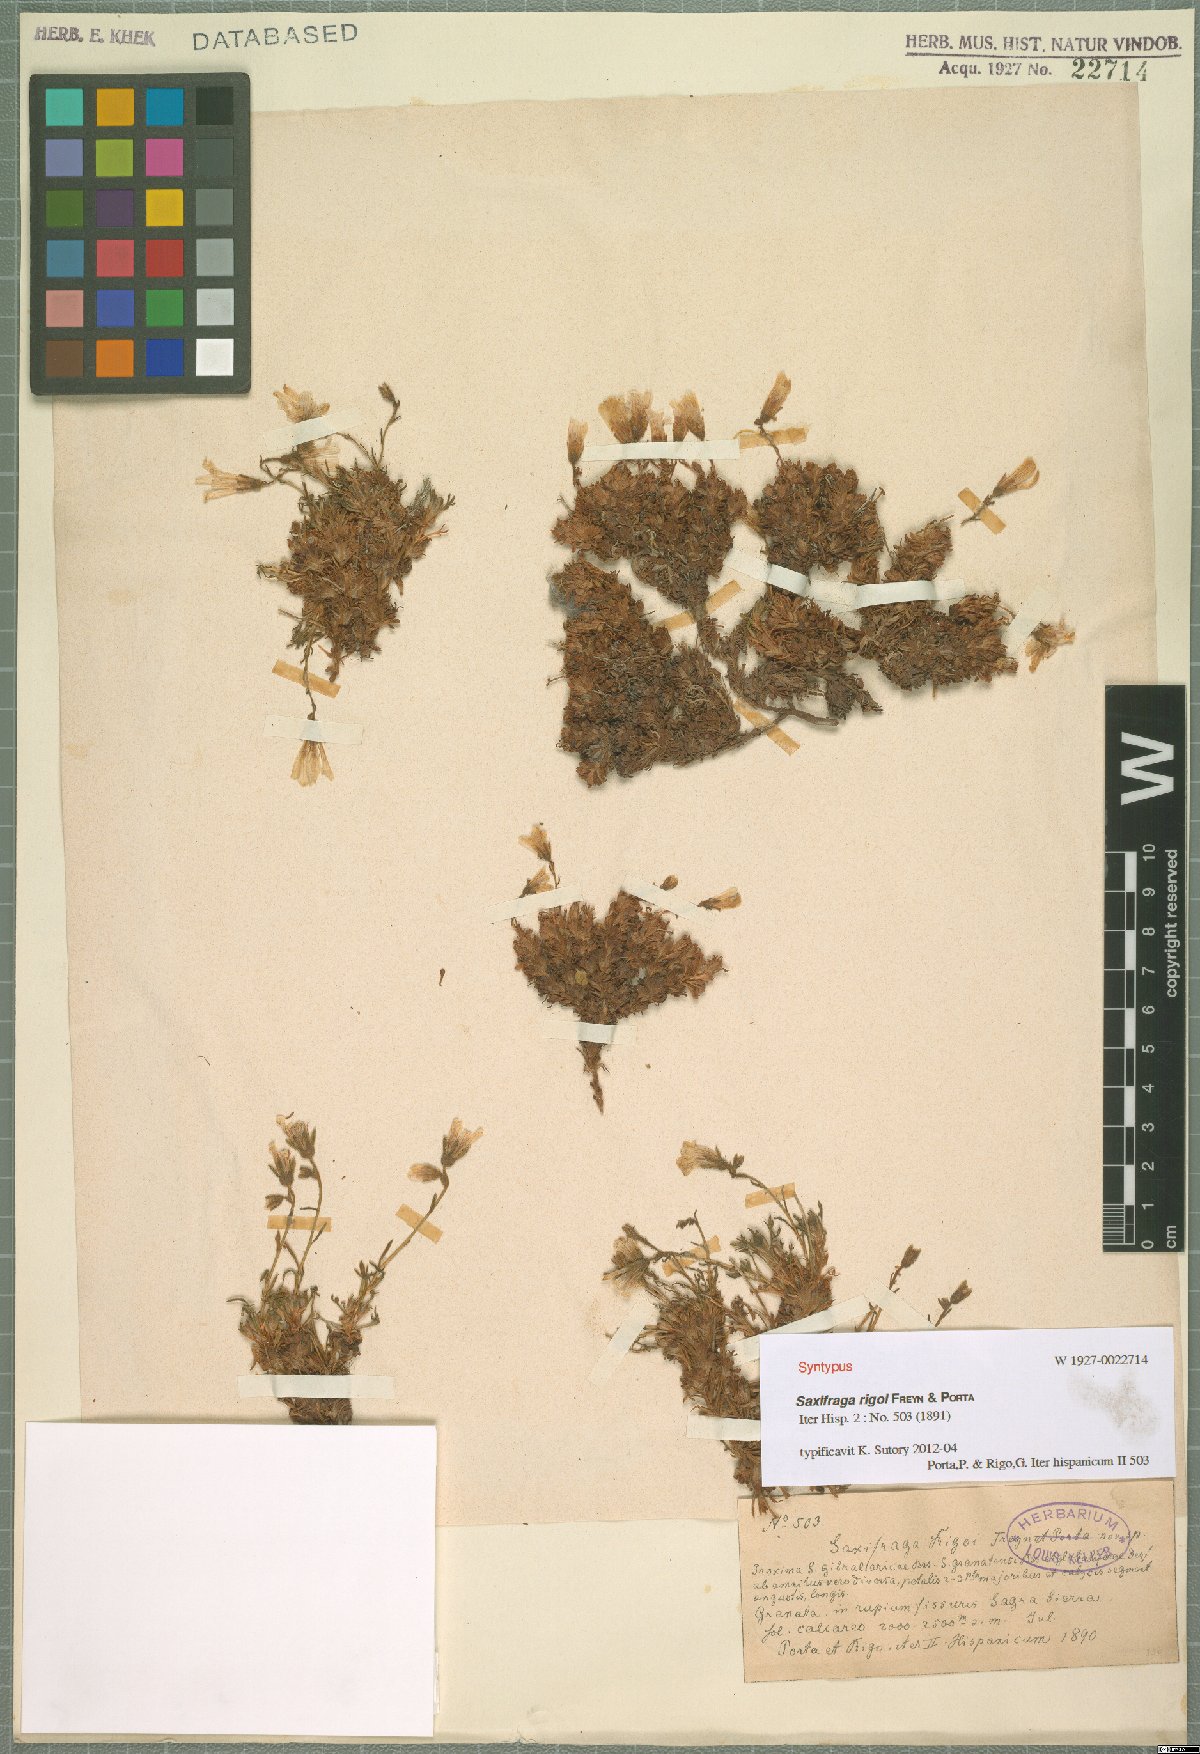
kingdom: Plantae
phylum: Tracheophyta
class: Magnoliopsida
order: Saxifragales
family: Saxifragaceae
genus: Saxifraga
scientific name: Saxifraga rigoi
